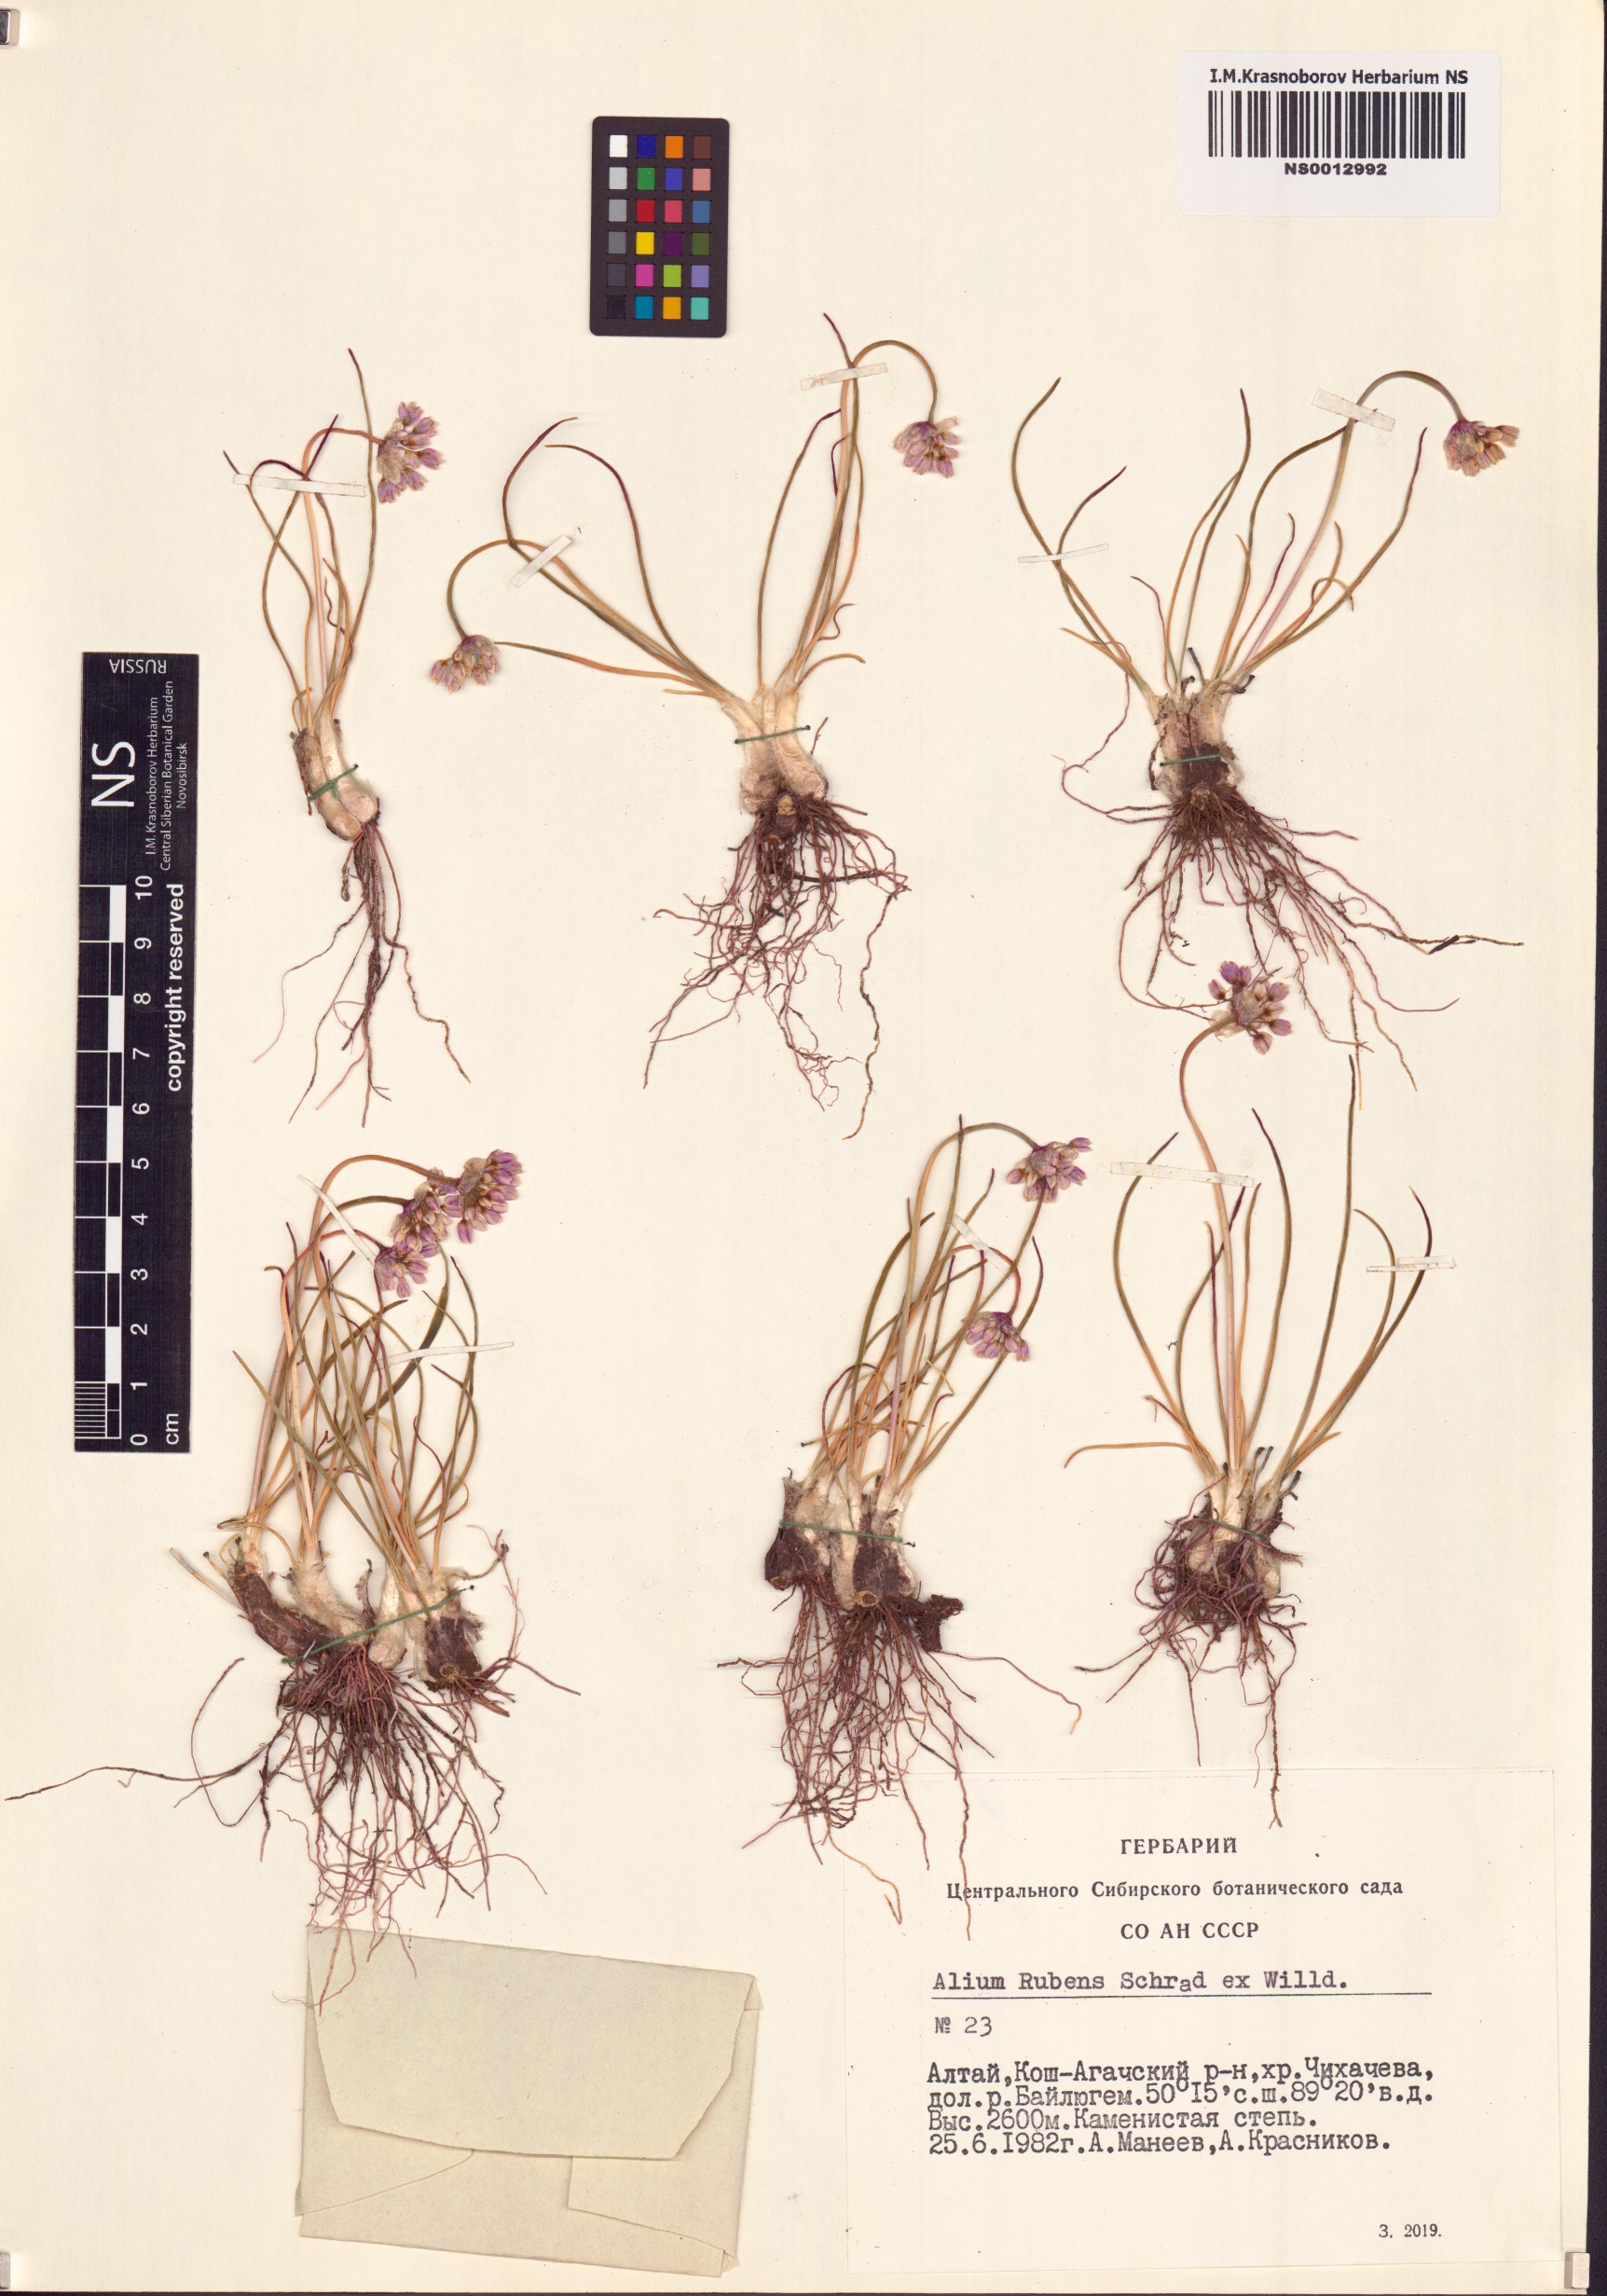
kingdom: Plantae
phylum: Tracheophyta
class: Liliopsida
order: Asparagales
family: Amaryllidaceae
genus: Allium
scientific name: Allium rubens
